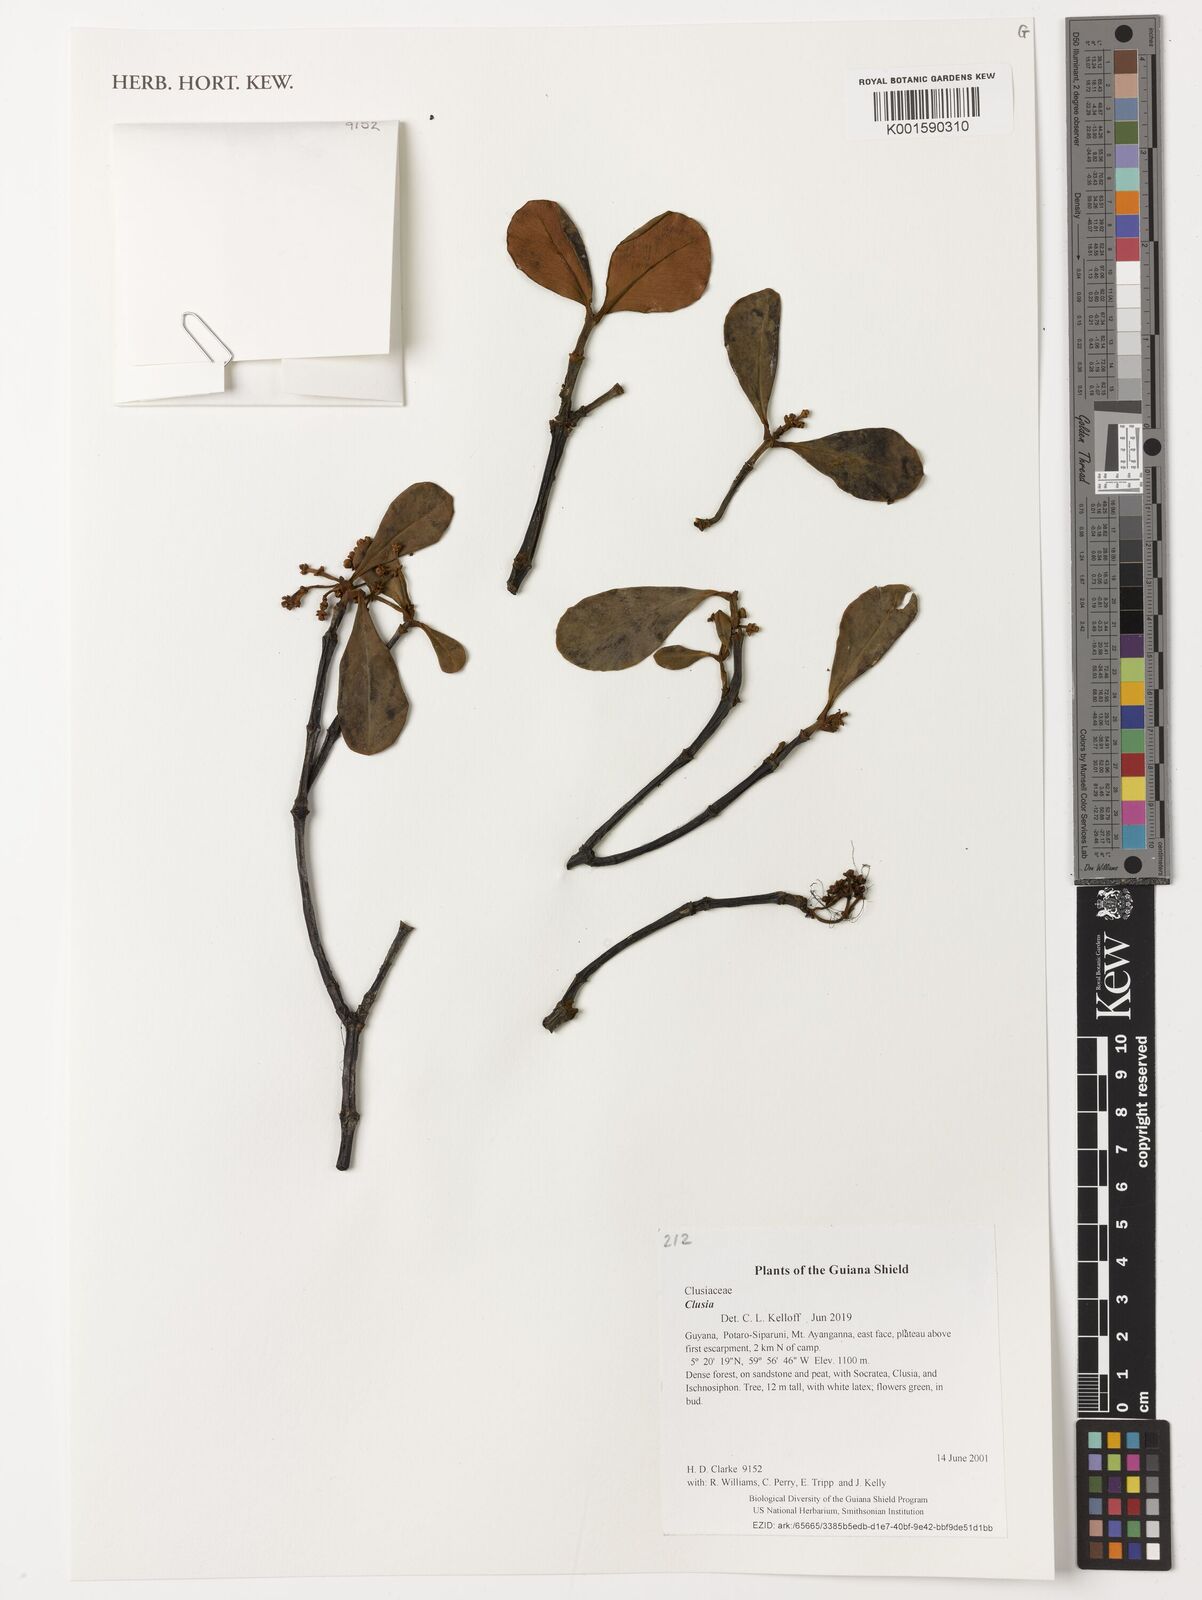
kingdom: Plantae
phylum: Tracheophyta
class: Magnoliopsida
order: Malpighiales
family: Clusiaceae
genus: Clusia
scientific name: Clusia
